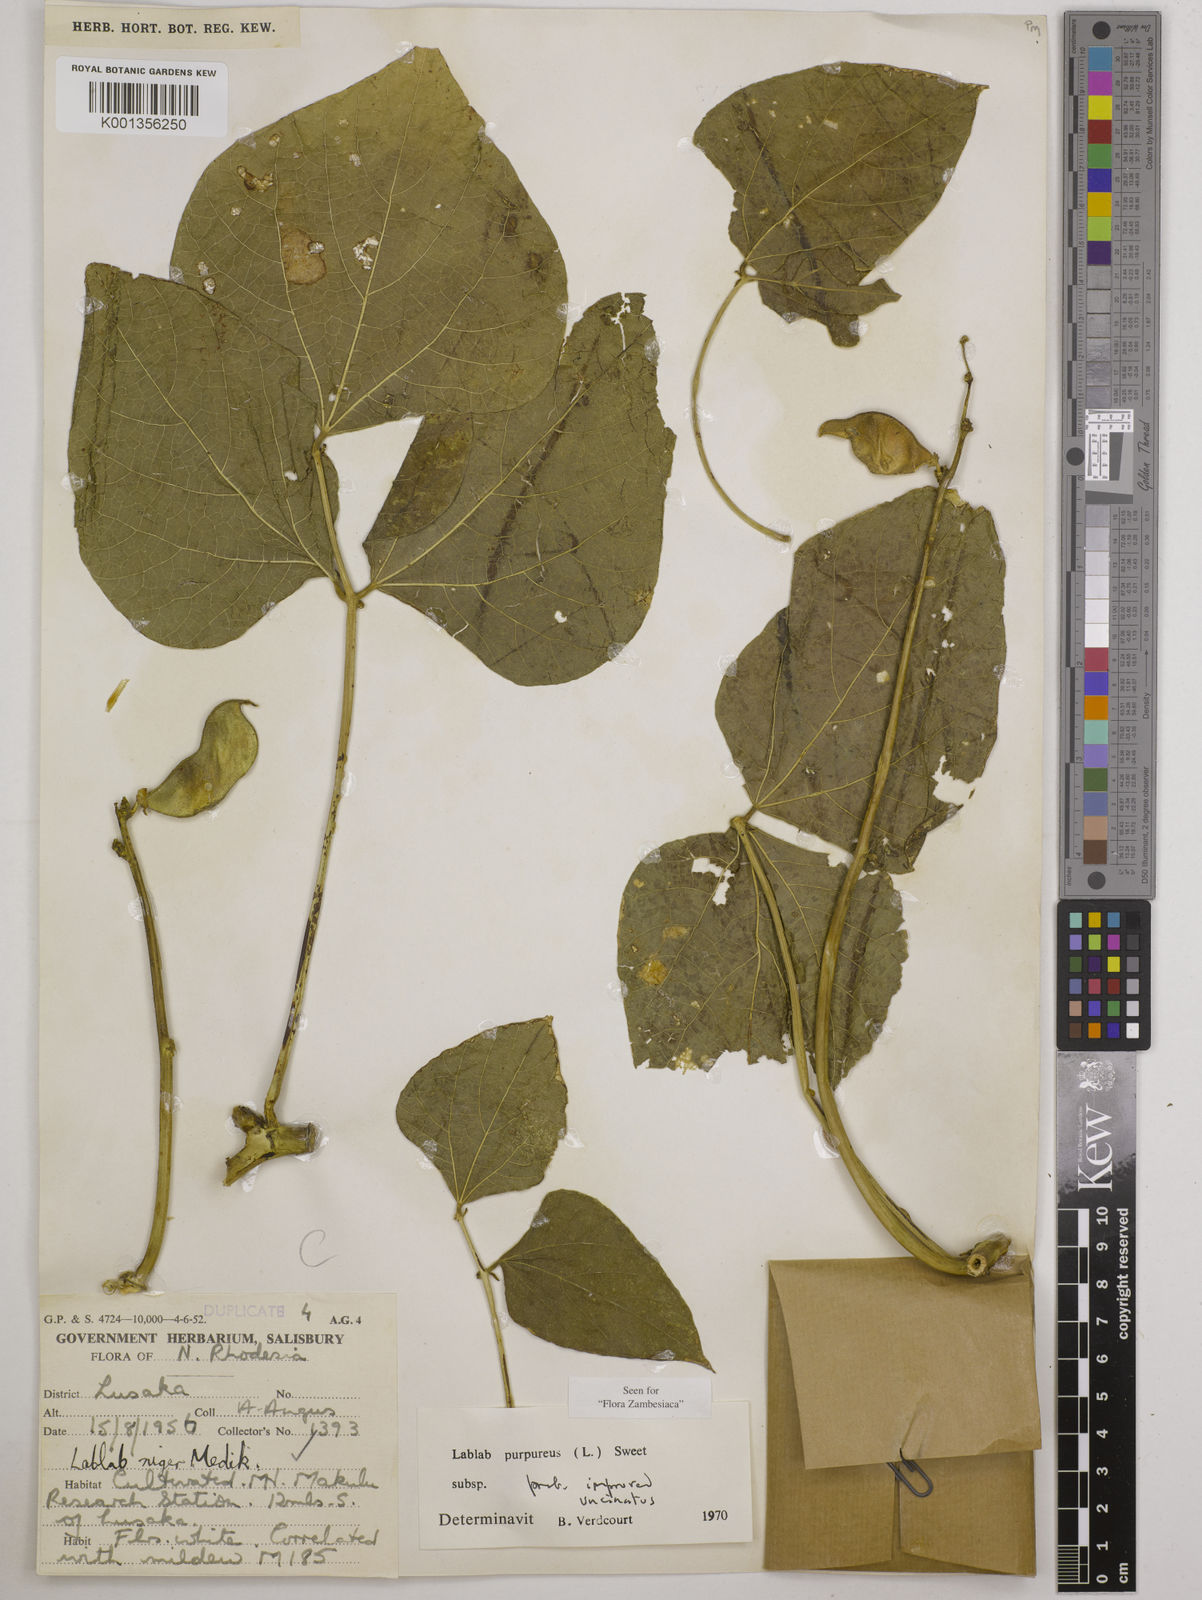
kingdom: Plantae
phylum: Tracheophyta
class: Magnoliopsida
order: Fabales
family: Fabaceae
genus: Lablab
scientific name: Lablab purpureus
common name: Lablab-bean
